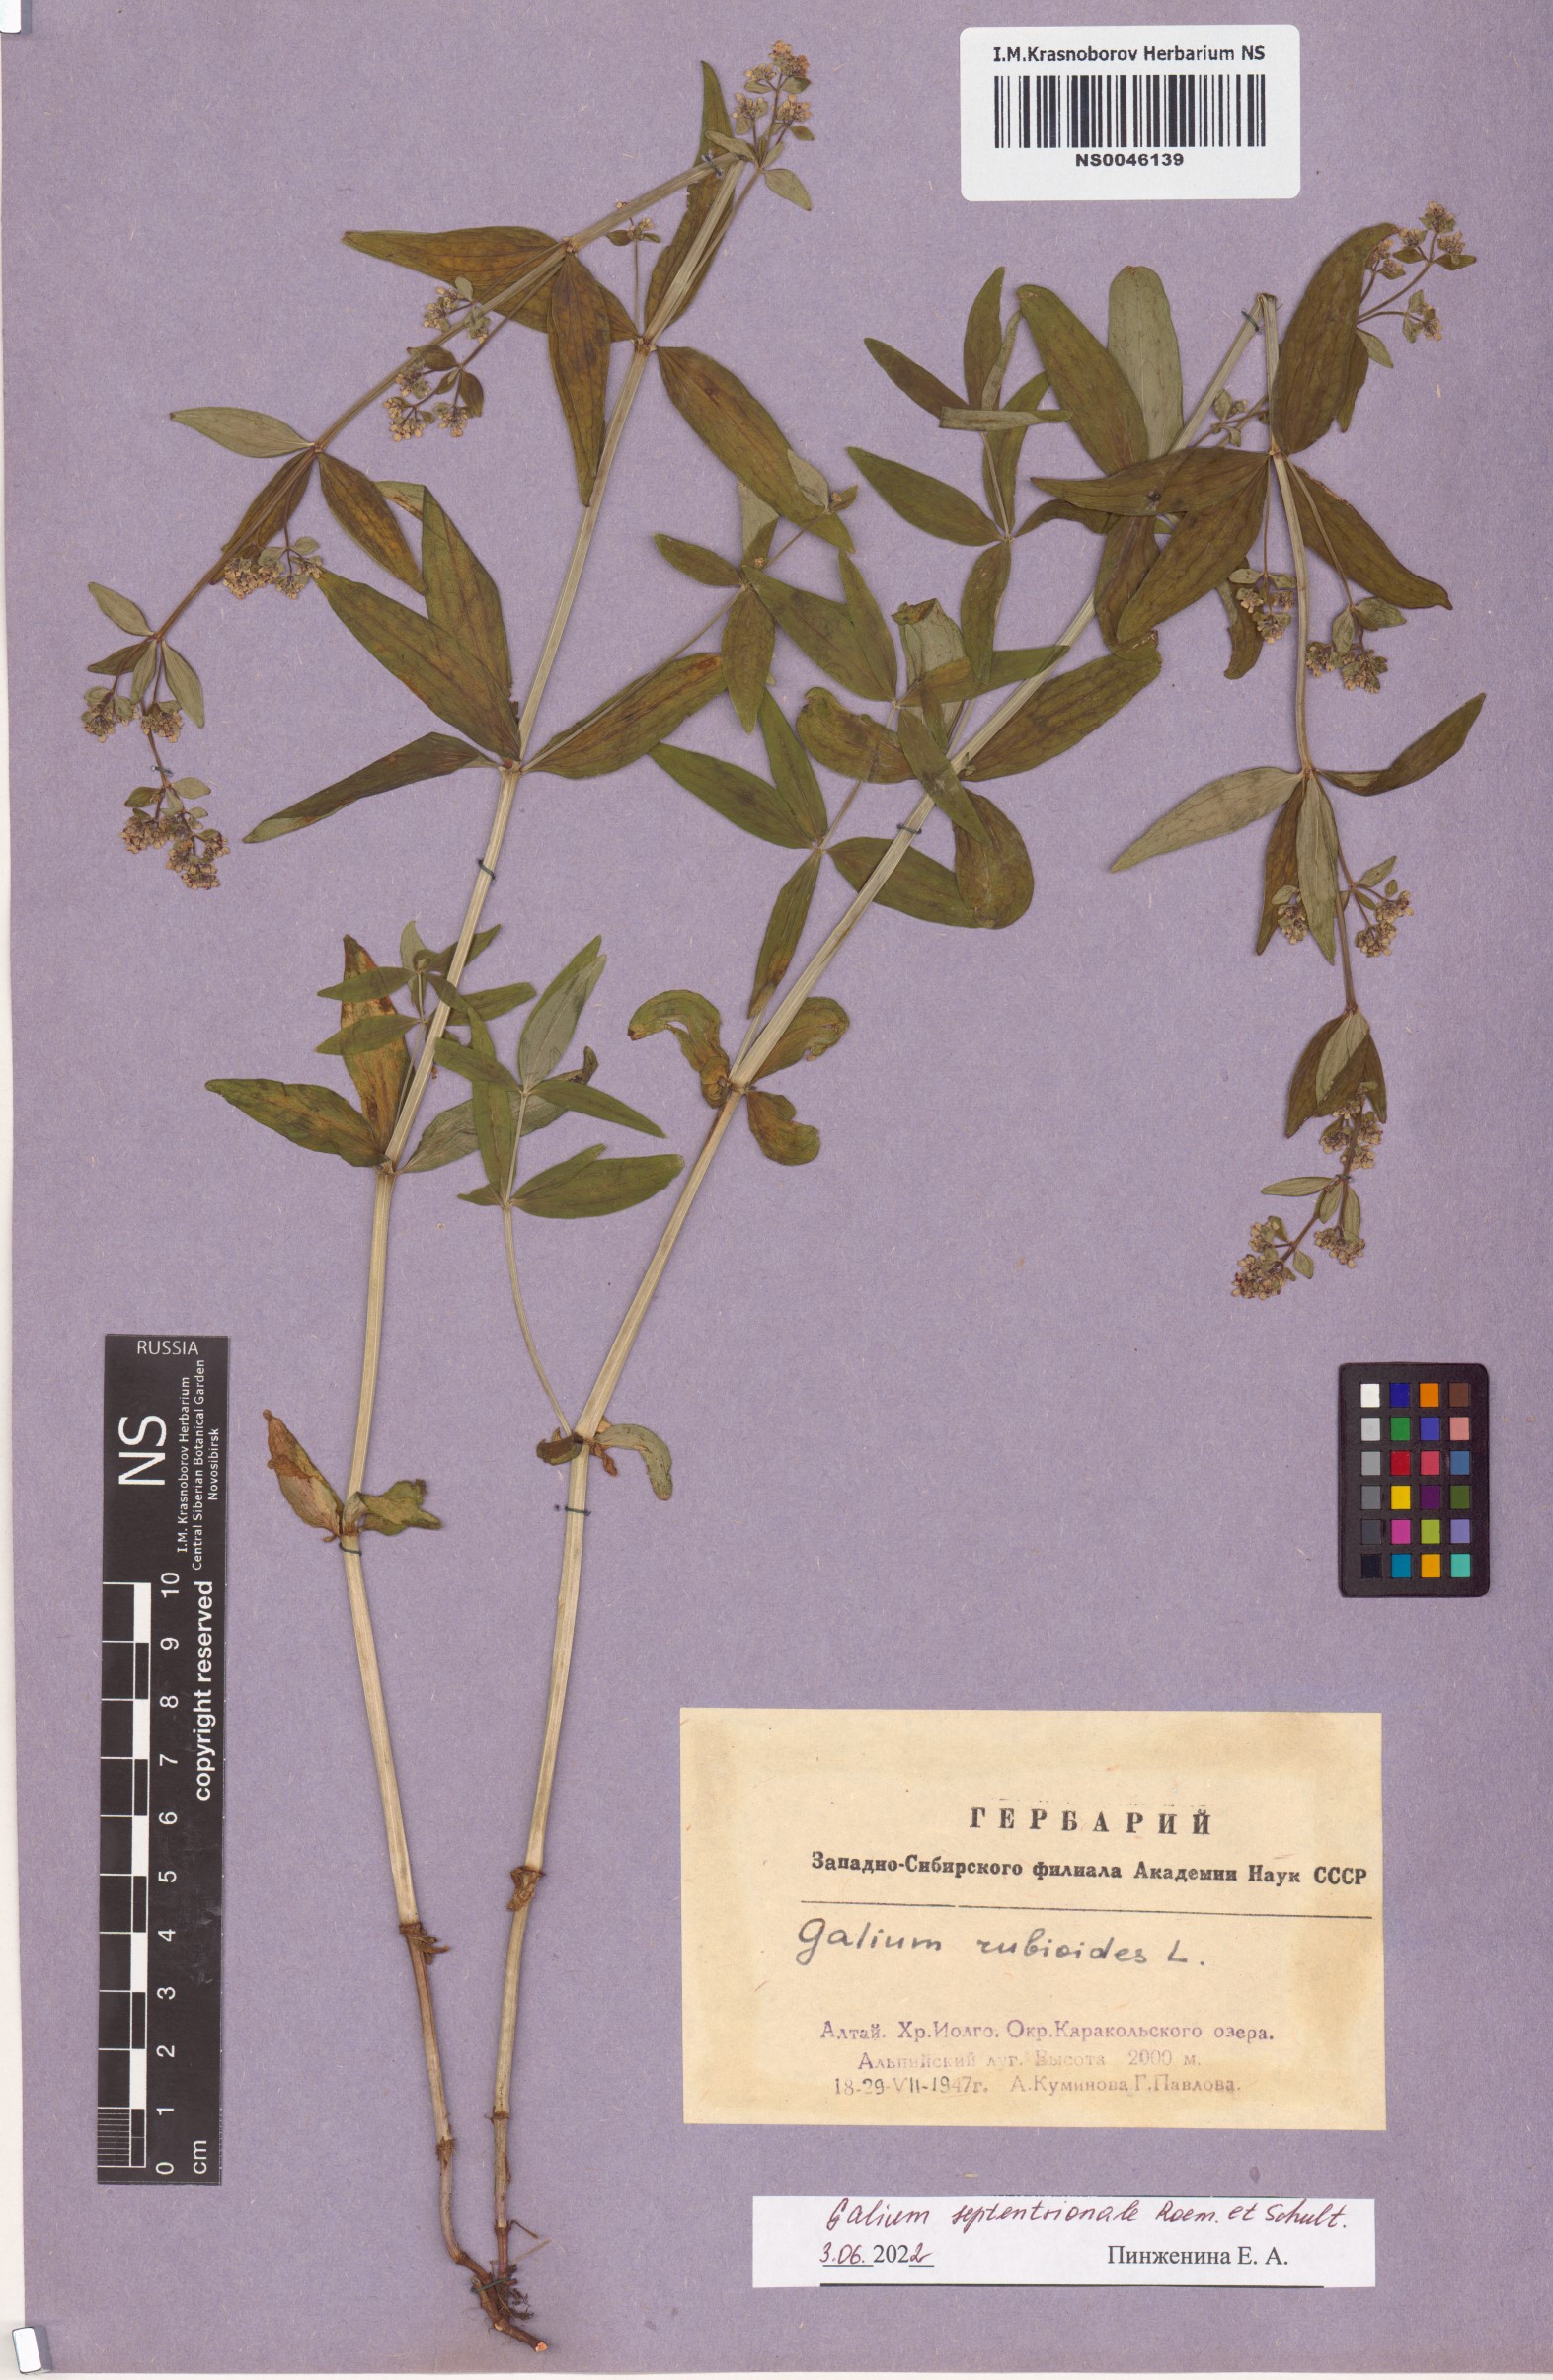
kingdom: Plantae
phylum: Tracheophyta
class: Magnoliopsida
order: Gentianales
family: Rubiaceae
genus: Galium
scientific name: Galium boreale
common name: Northern bedstraw
